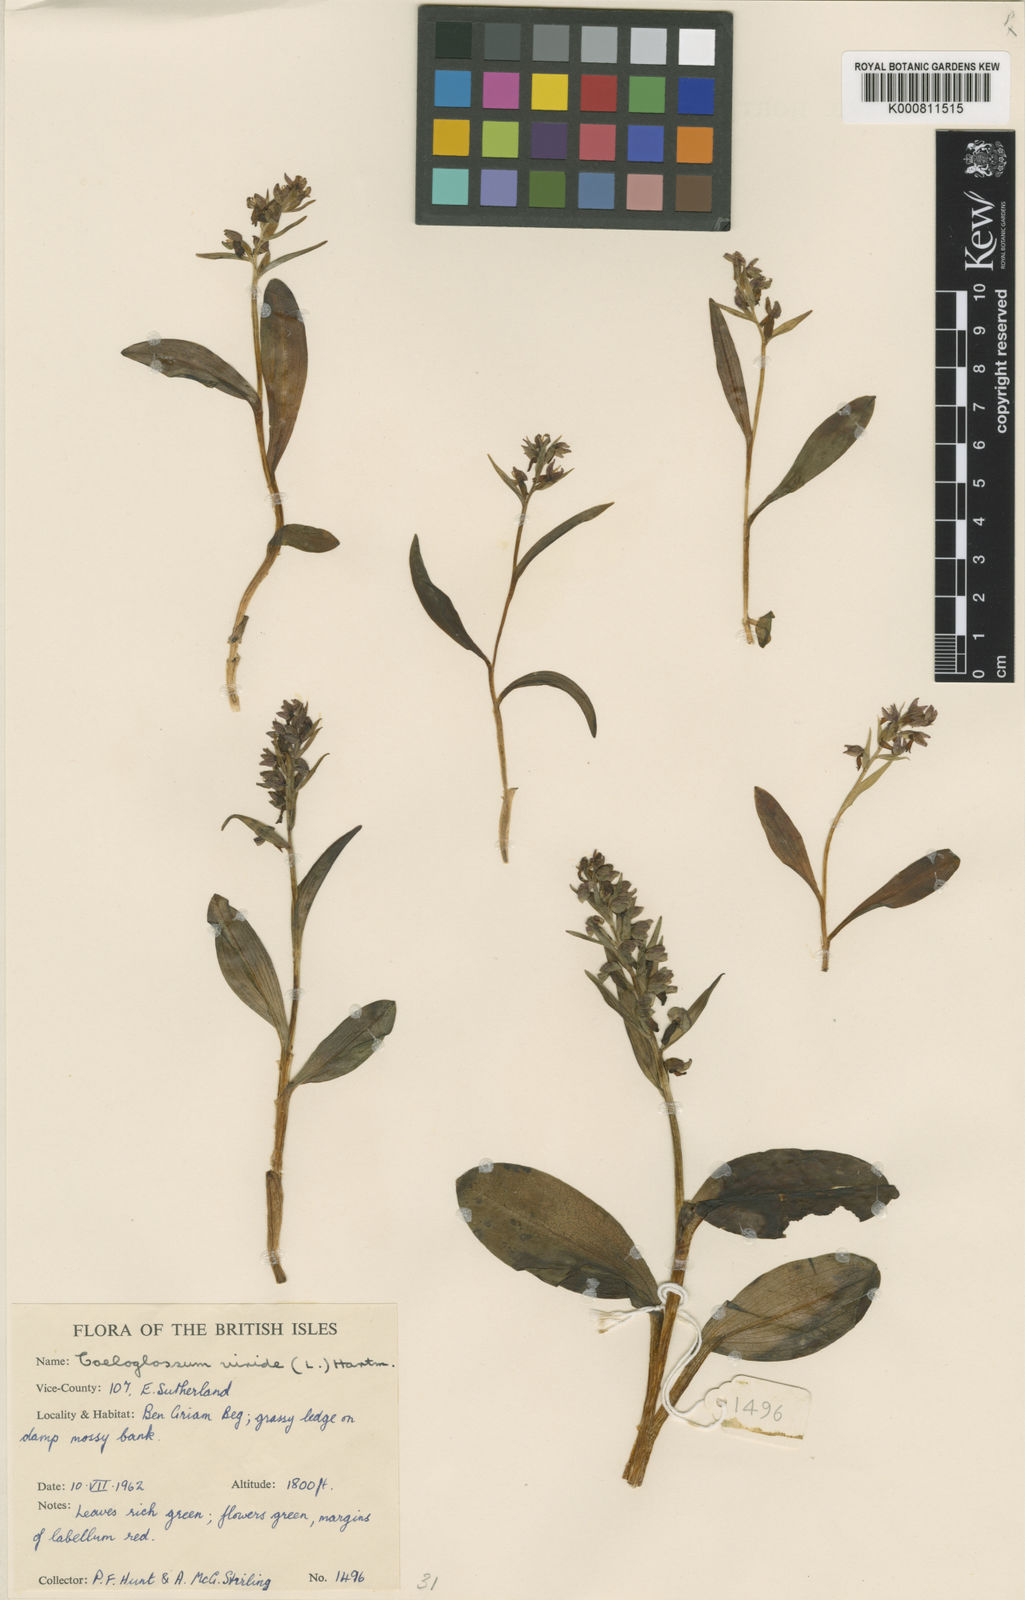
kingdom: Plantae
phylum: Tracheophyta
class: Liliopsida
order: Asparagales
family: Orchidaceae
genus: Dactylorhiza
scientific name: Dactylorhiza viridis
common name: Longbract frog orchid
